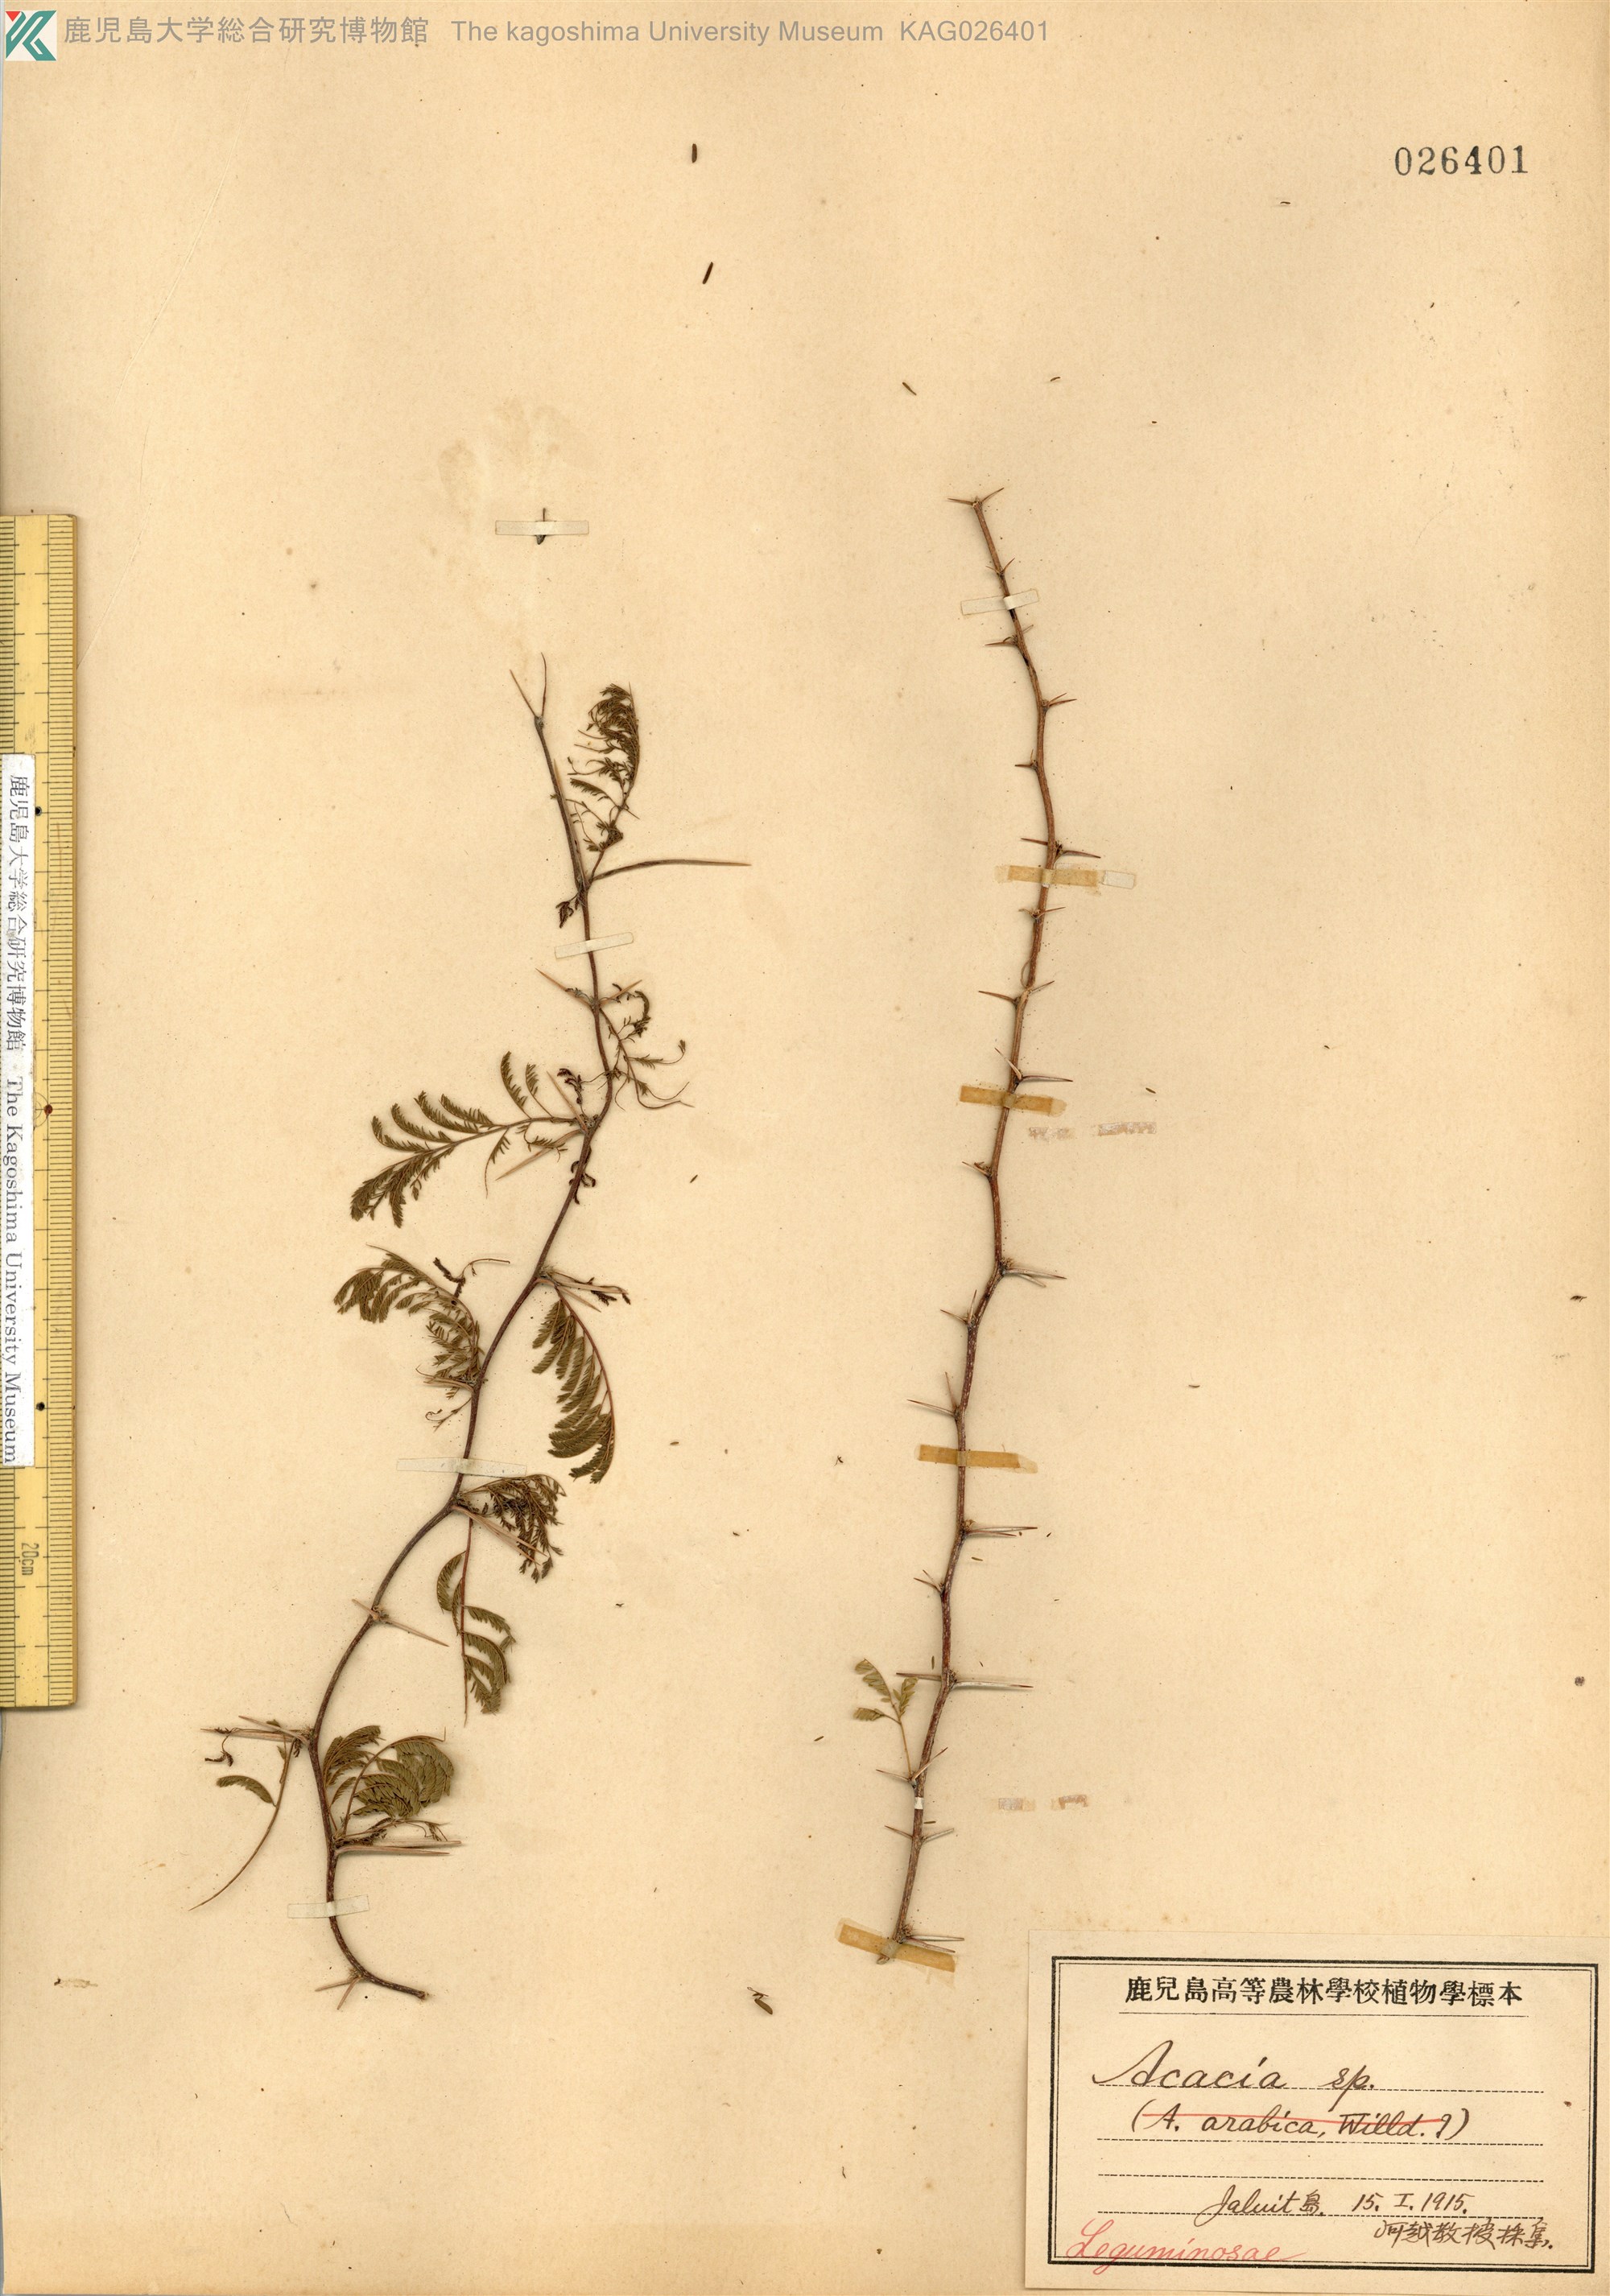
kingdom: Plantae
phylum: Tracheophyta
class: Magnoliopsida
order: Fabales
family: Fabaceae
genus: Vachellia
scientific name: Vachellia farnesiana
